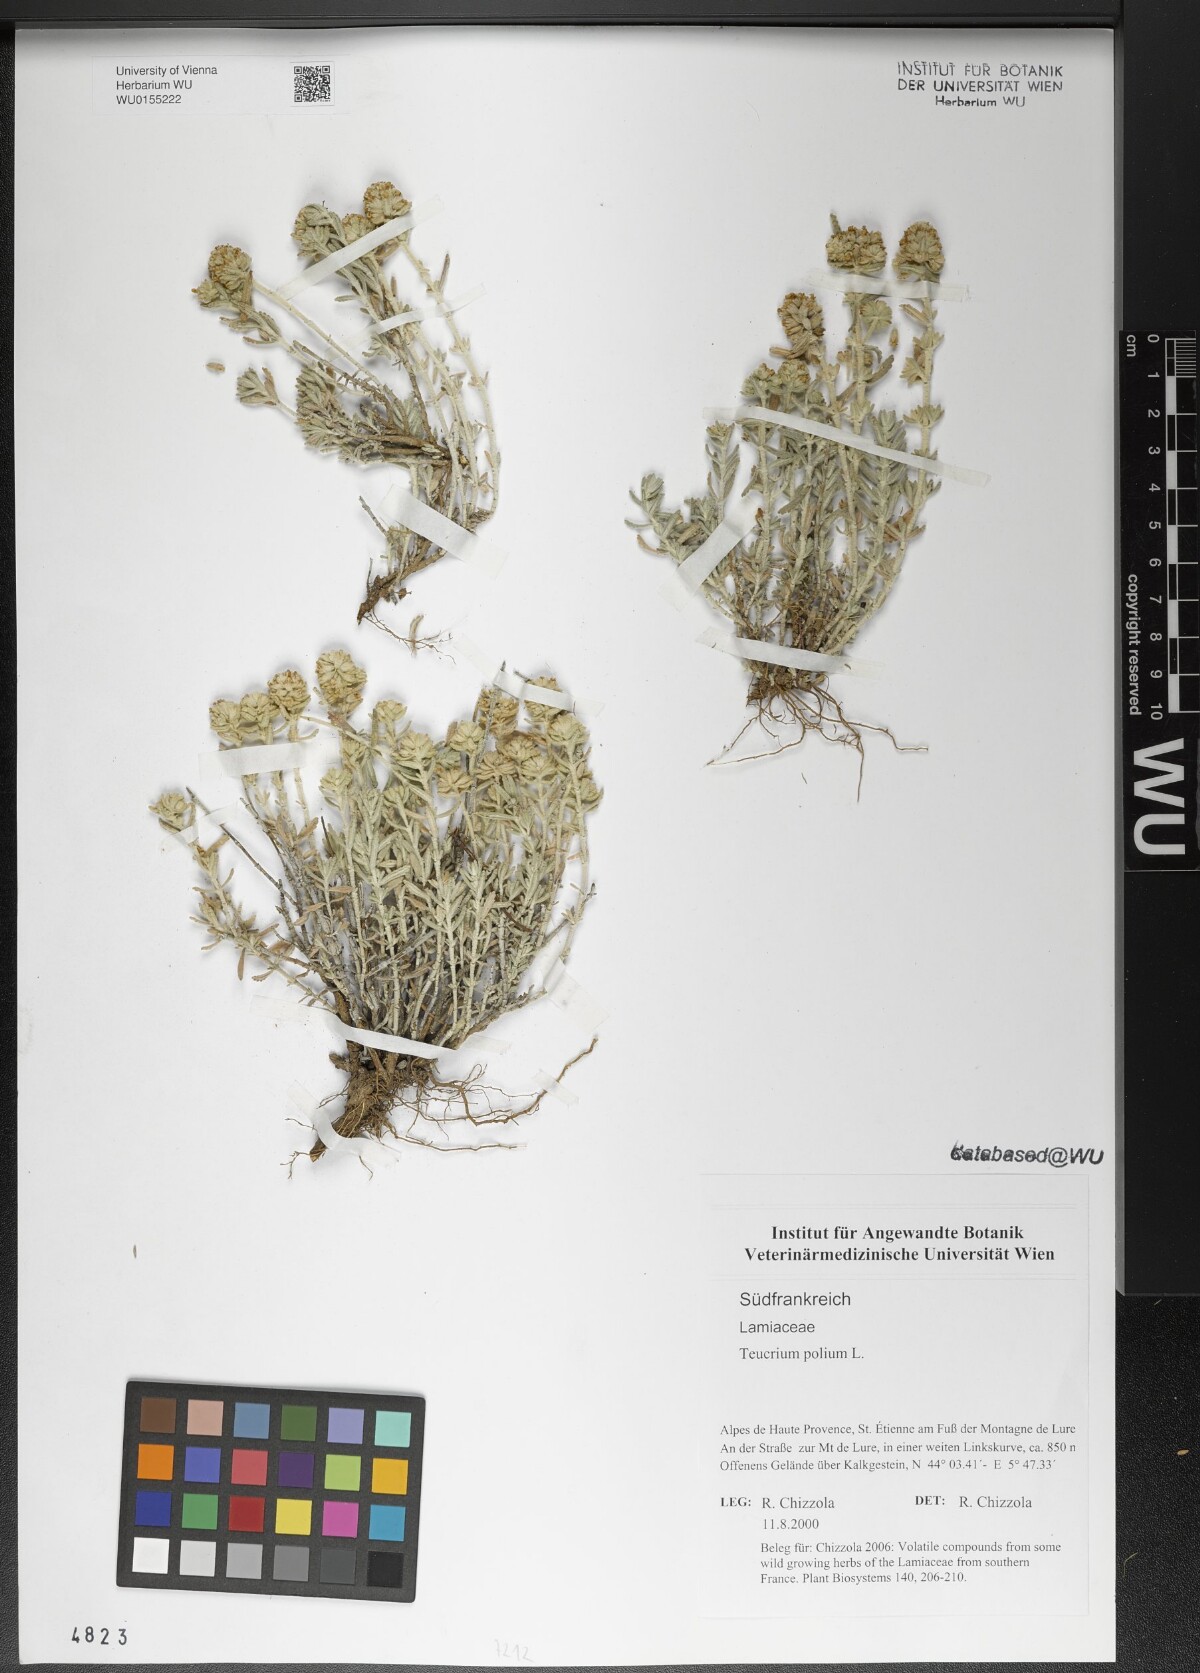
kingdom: Plantae
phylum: Tracheophyta
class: Magnoliopsida
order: Lamiales
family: Lamiaceae
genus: Teucrium
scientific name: Teucrium polium
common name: Poley
